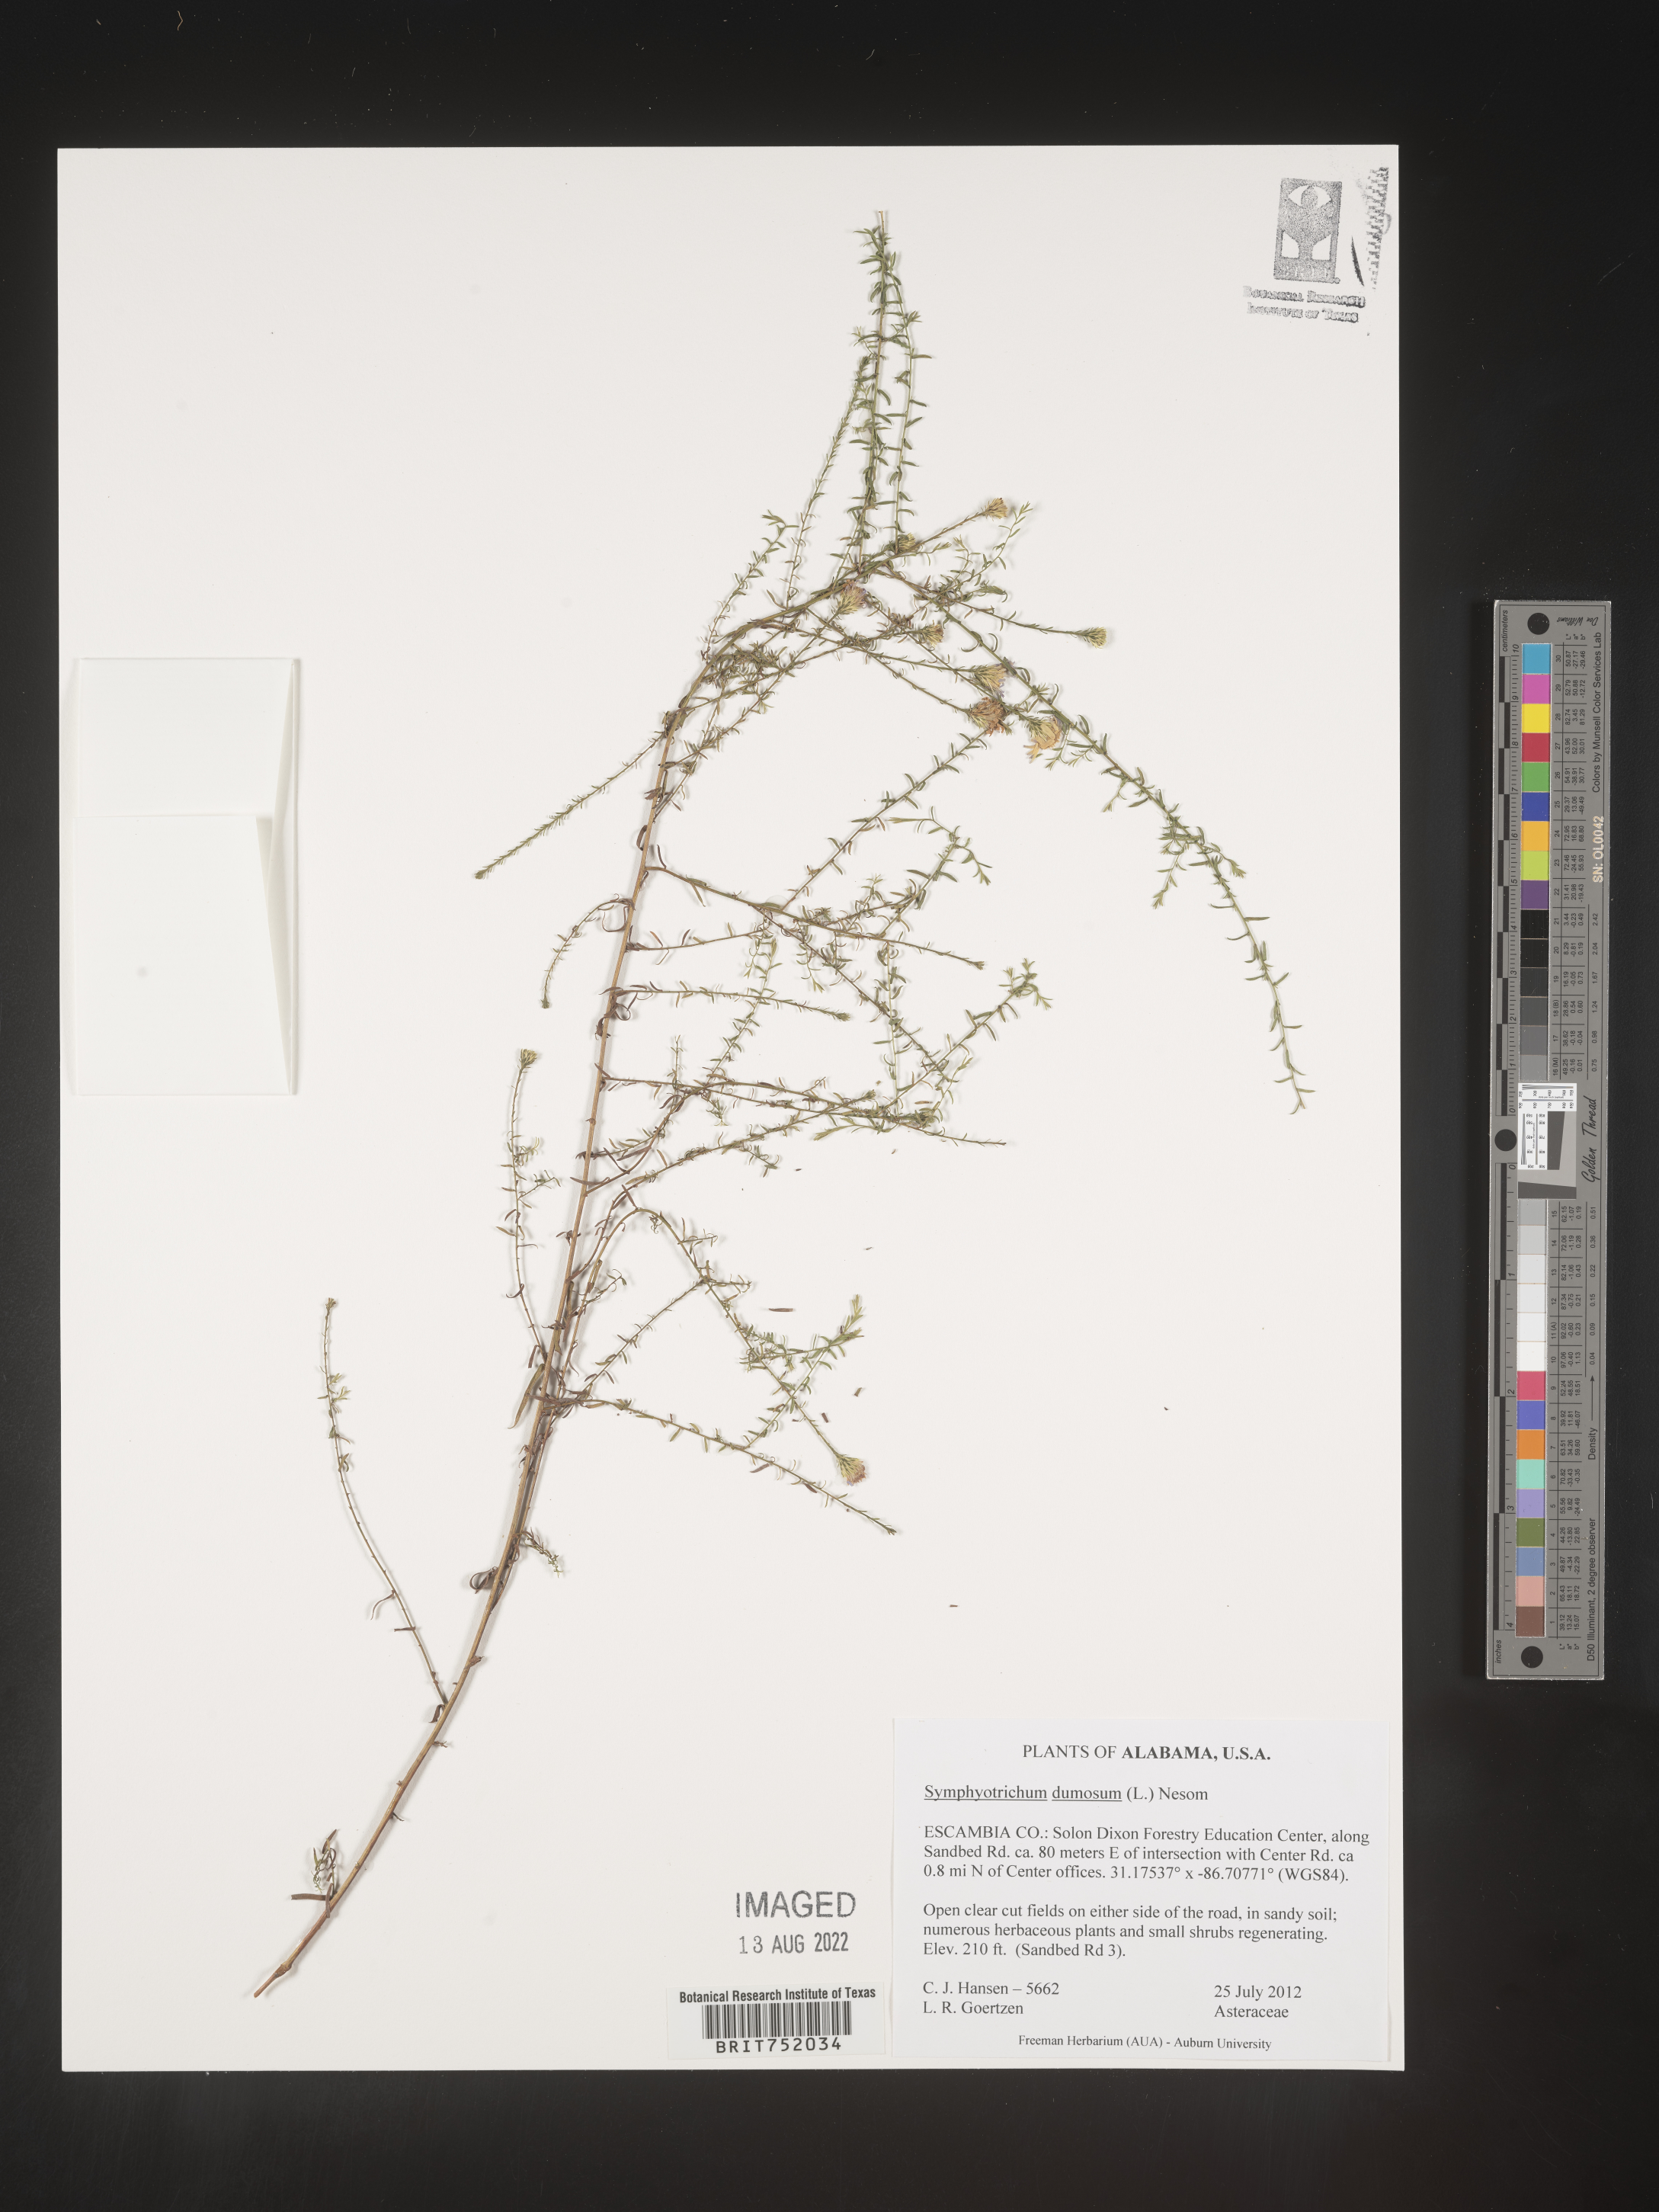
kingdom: Plantae
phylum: Tracheophyta
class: Magnoliopsida
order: Asterales
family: Asteraceae
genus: Symphyotrichum
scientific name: Symphyotrichum dumosum
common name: Bushy aster
